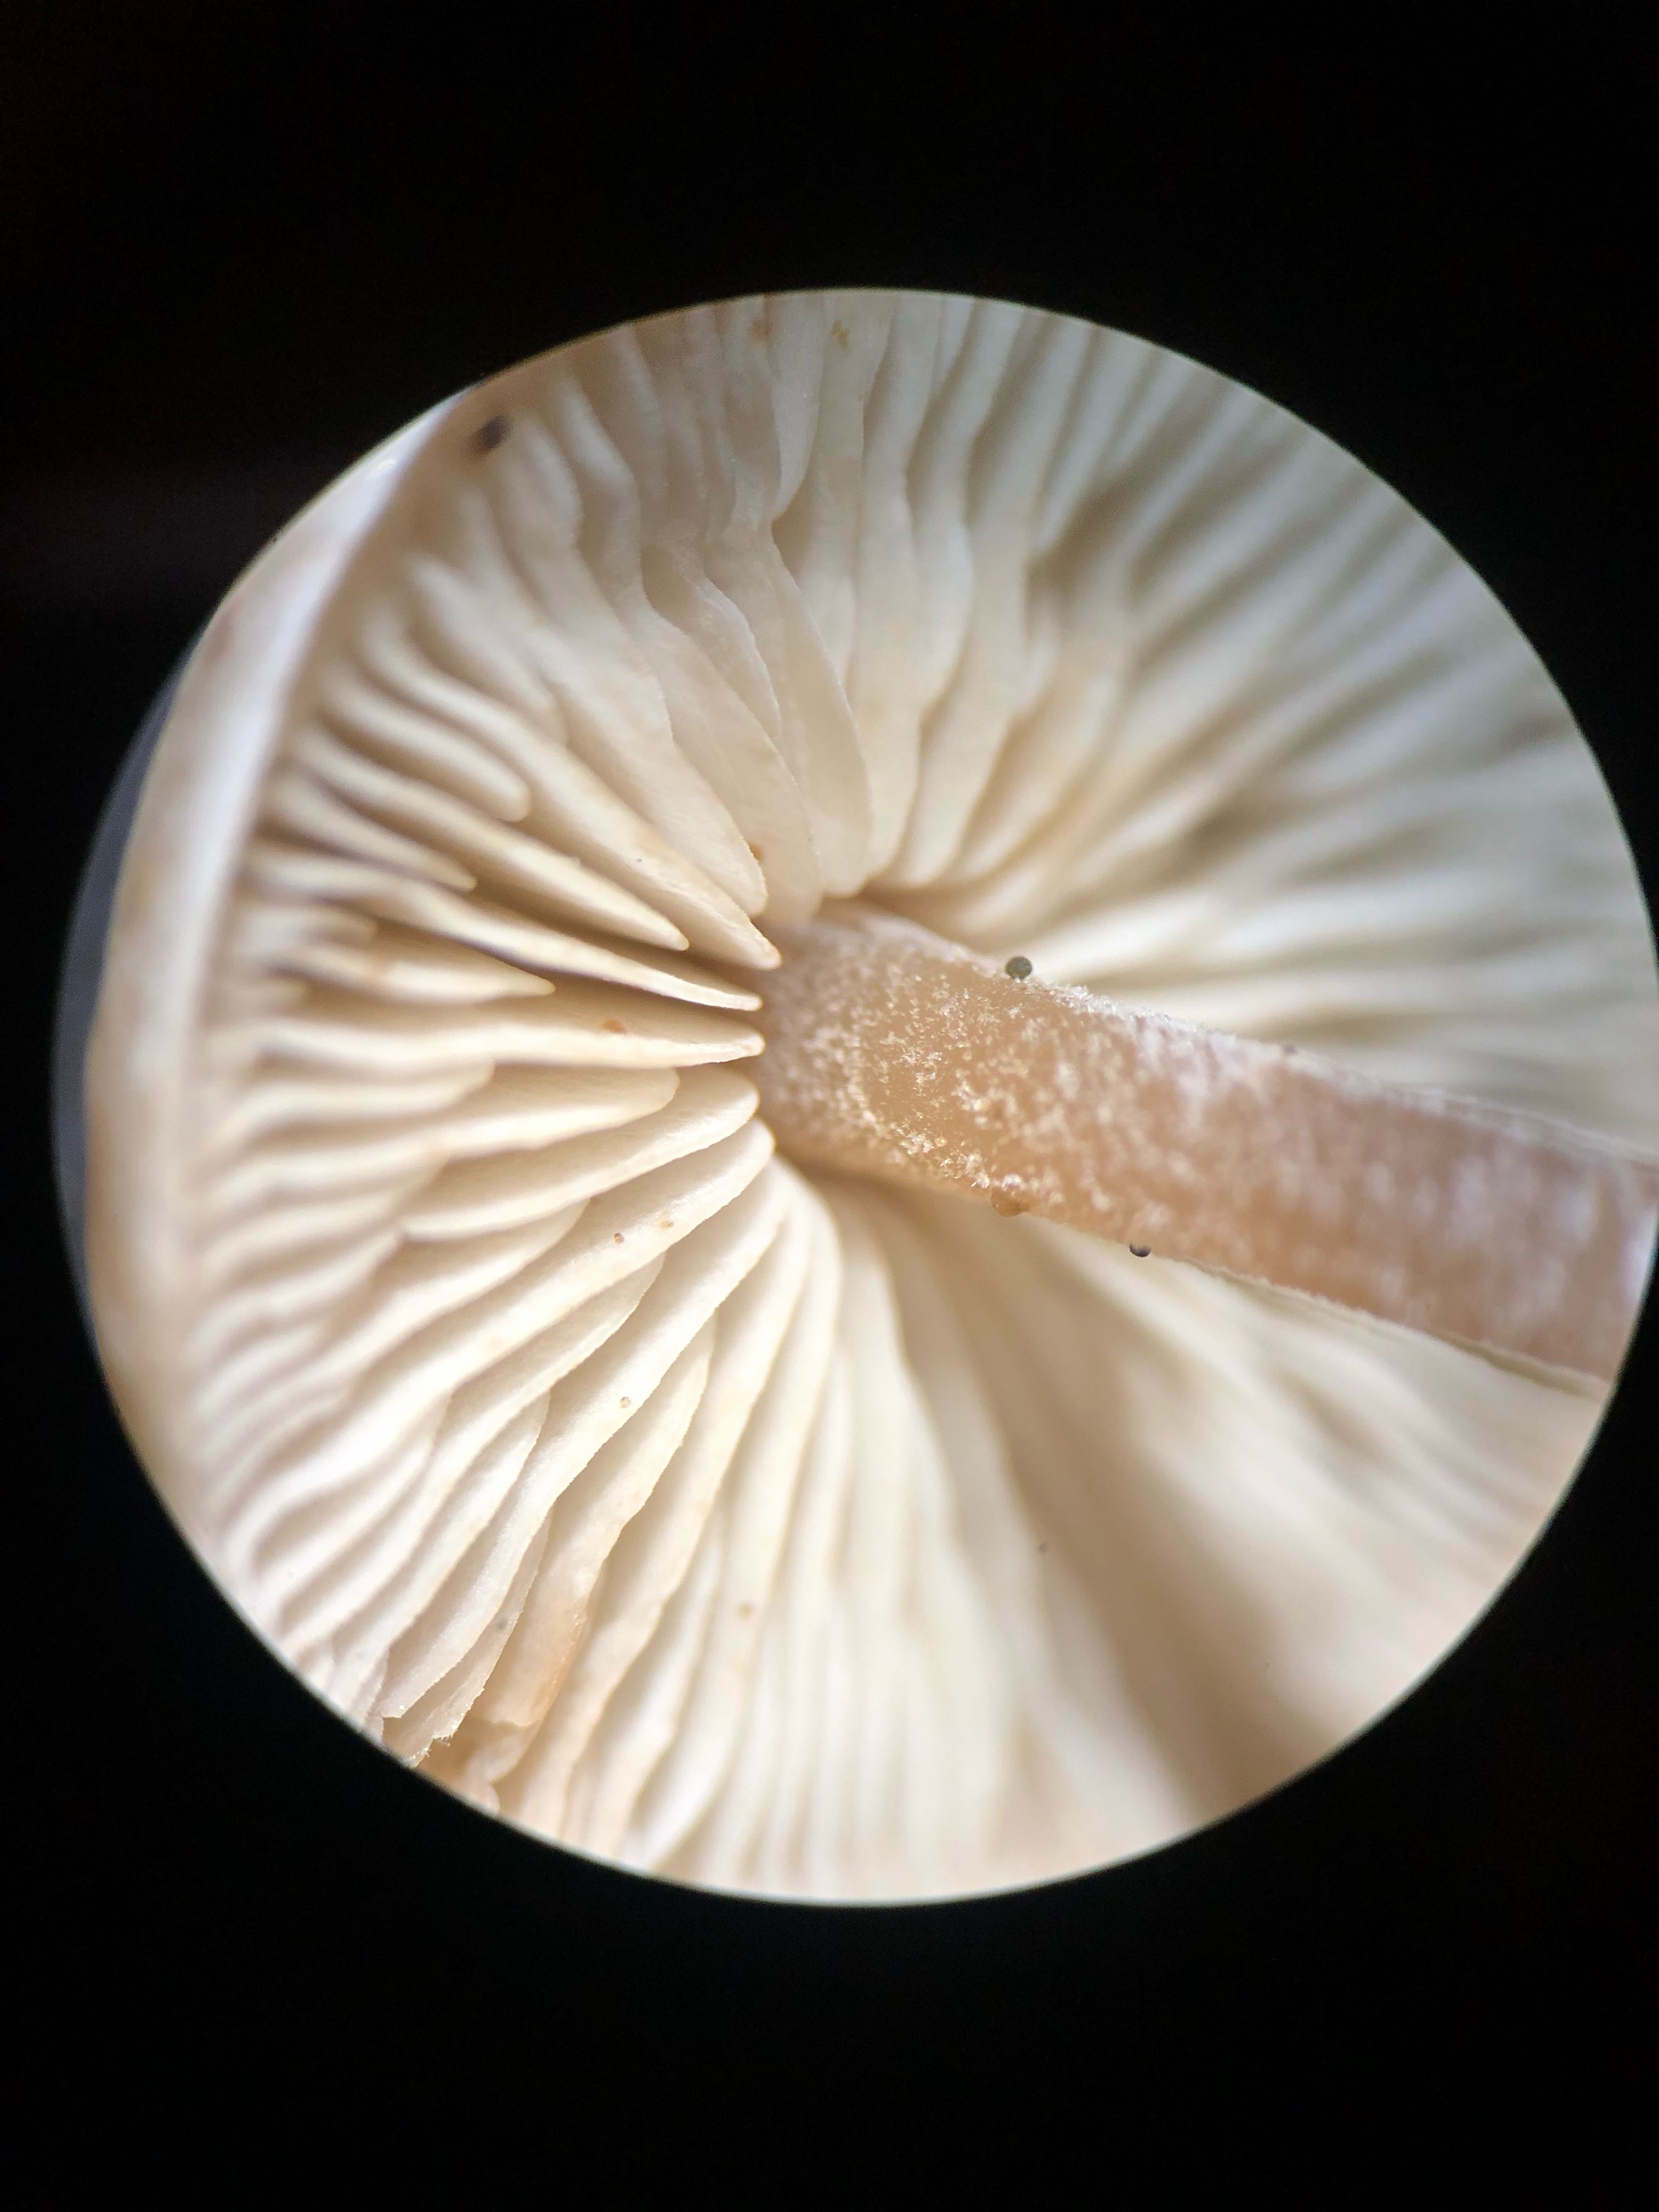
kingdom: Fungi
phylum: Basidiomycota
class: Agaricomycetes
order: Agaricales
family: Marasmiaceae
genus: Baeospora
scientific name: Baeospora myosura
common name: koglebruskhat
